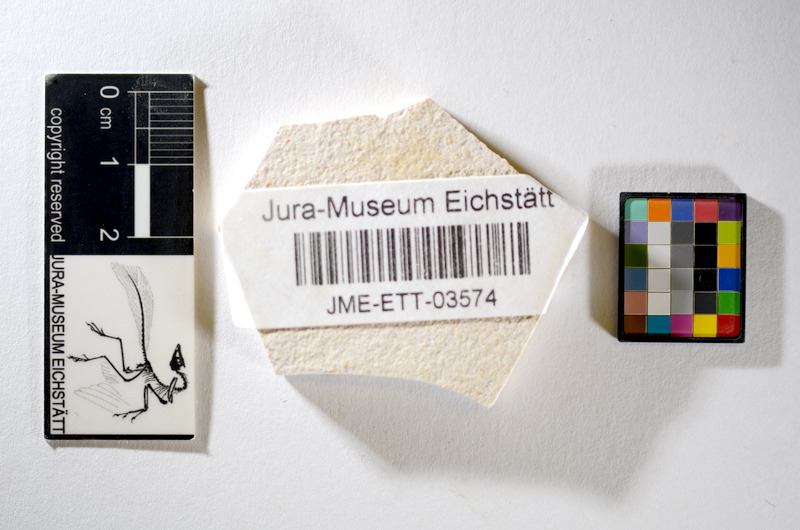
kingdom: Animalia
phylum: Chordata
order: Salmoniformes
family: Orthogonikleithridae
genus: Orthogonikleithrus
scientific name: Orthogonikleithrus hoelli
